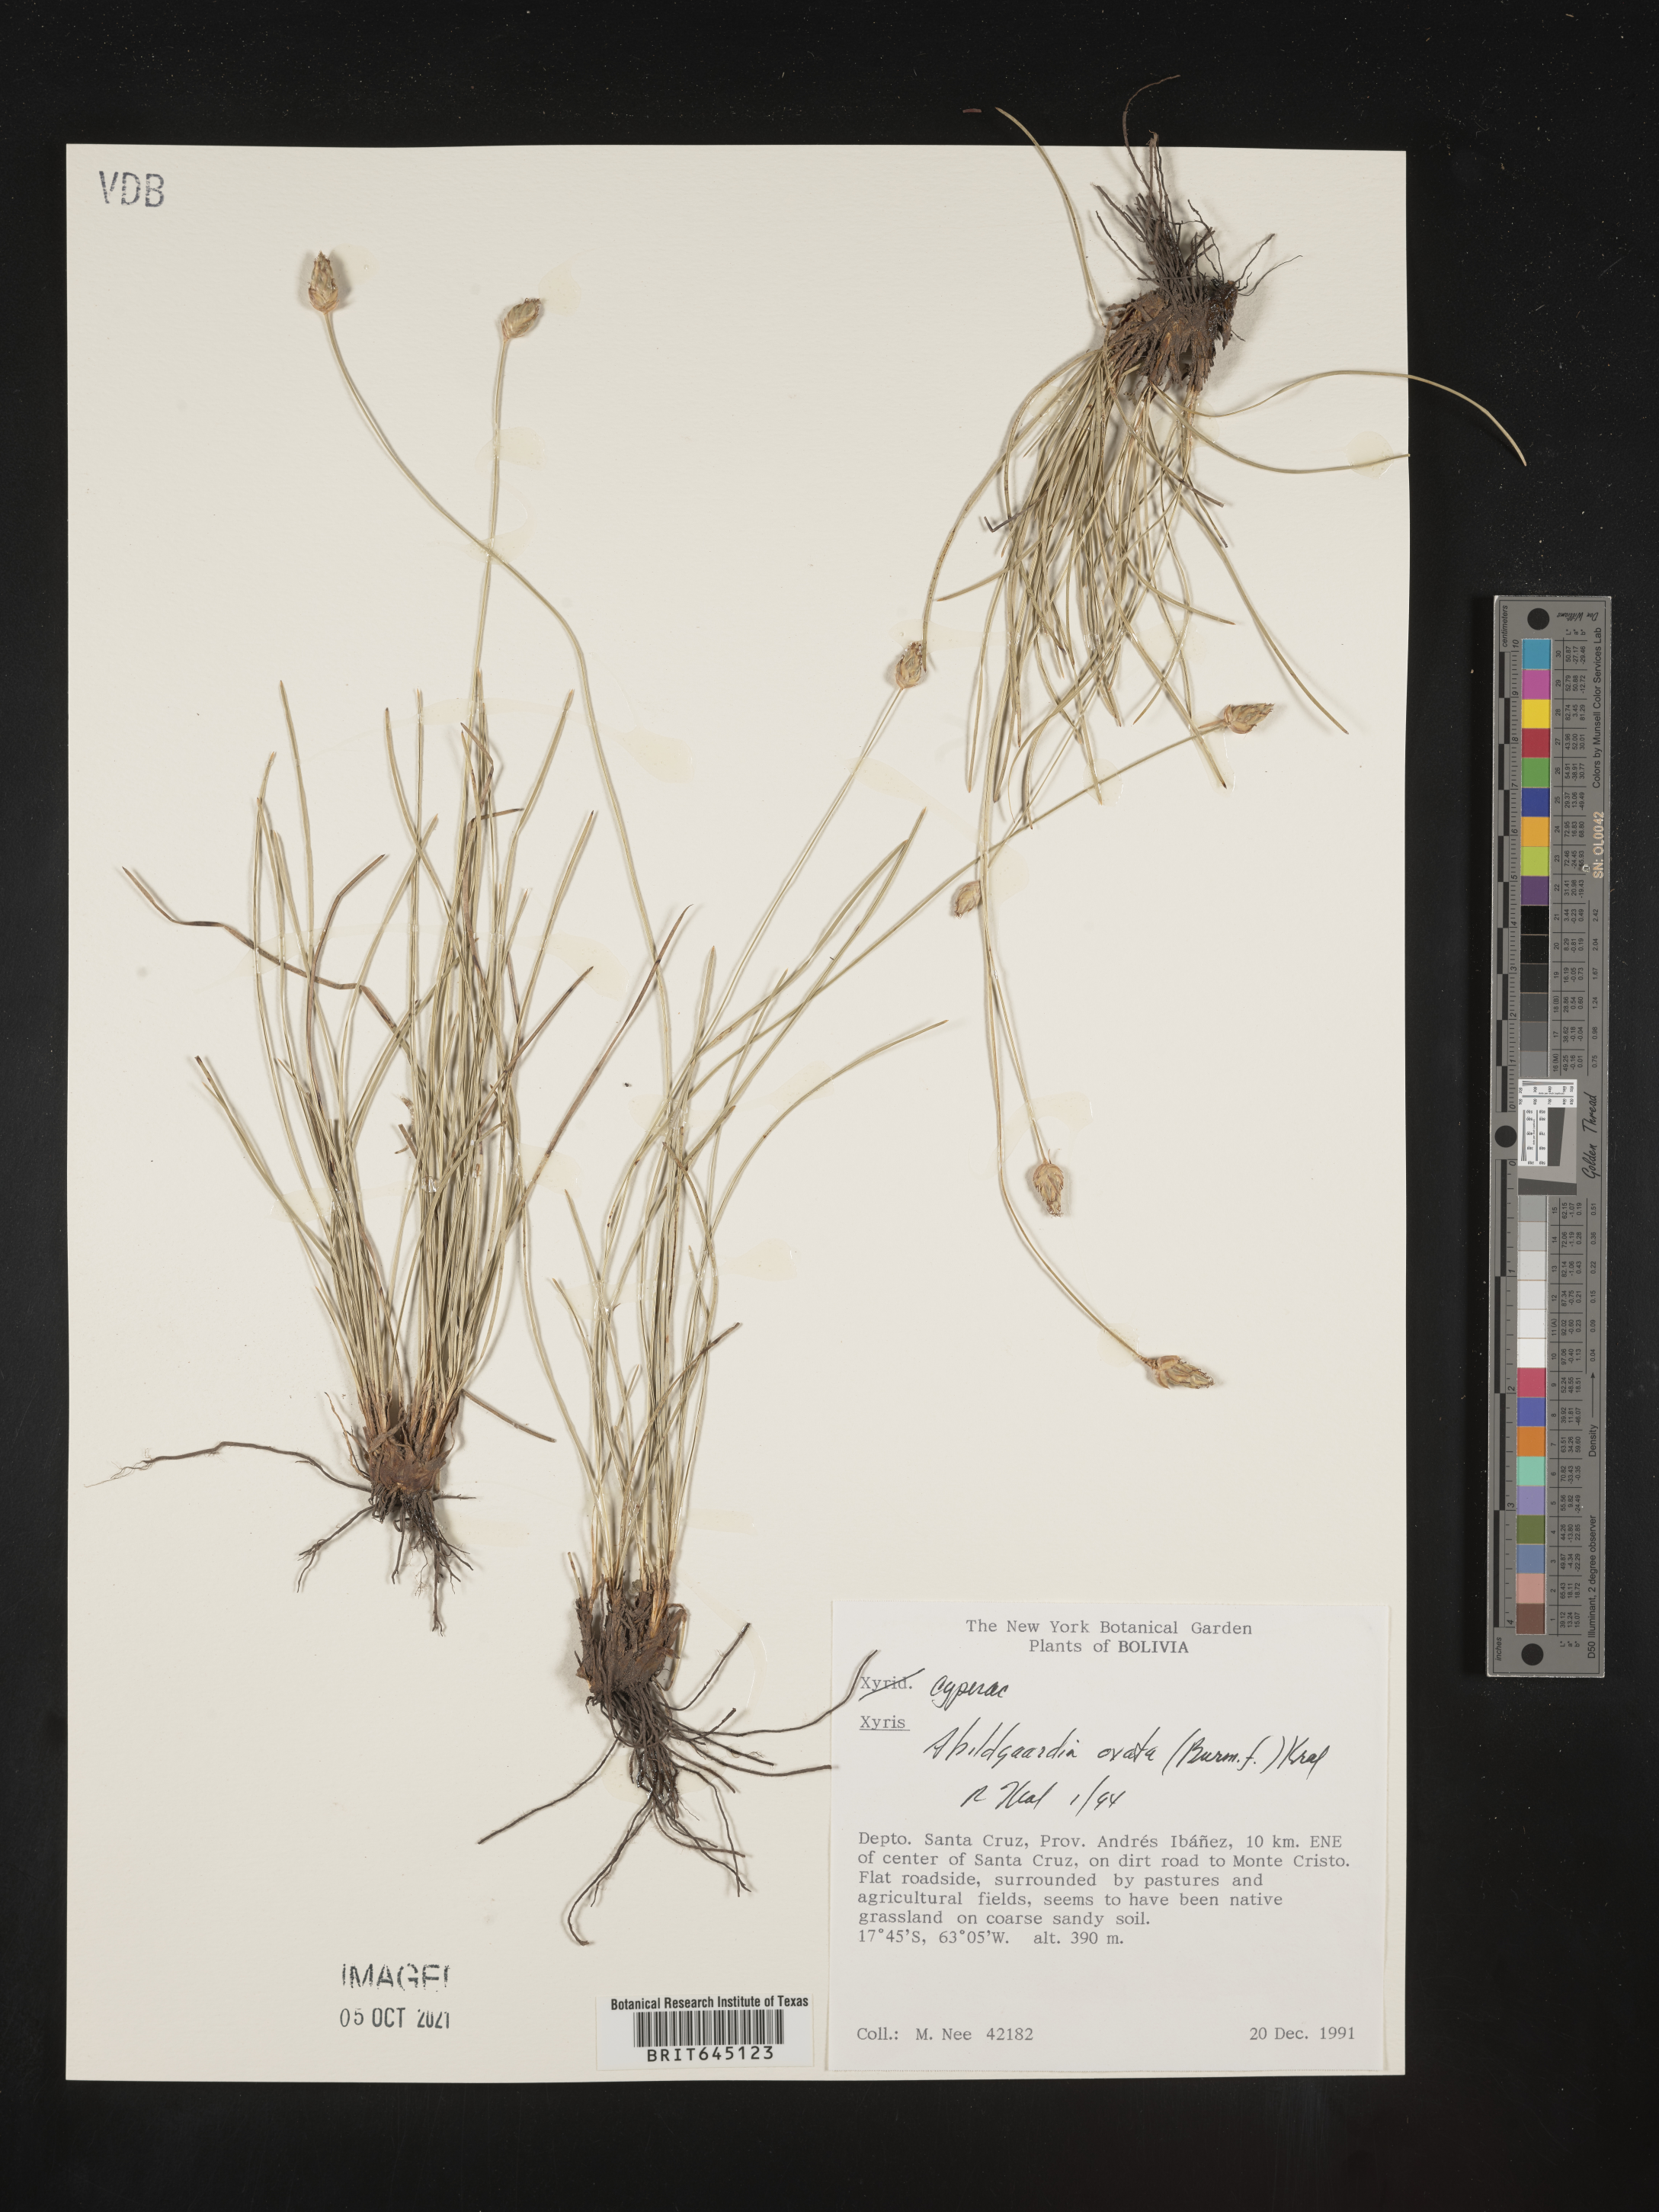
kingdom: Plantae
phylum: Tracheophyta
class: Liliopsida
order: Poales
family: Cyperaceae
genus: Abildgaardia
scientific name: Abildgaardia ovata
